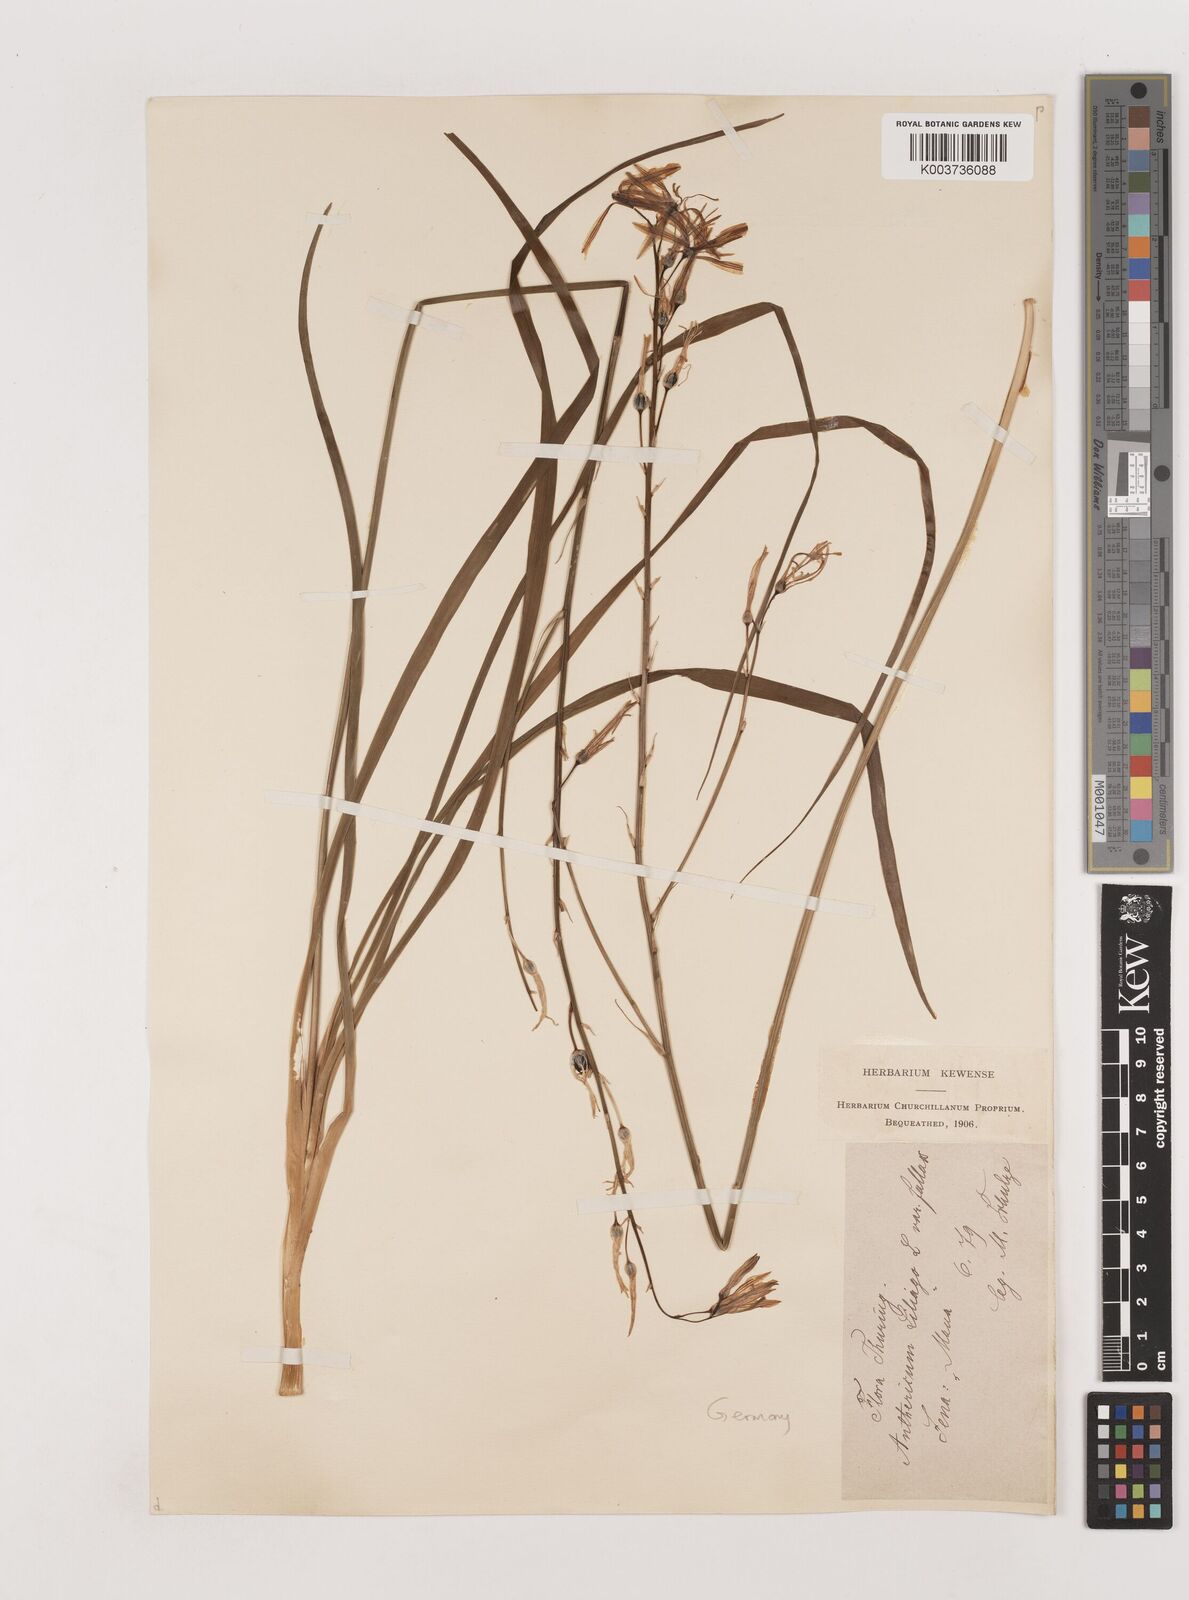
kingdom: Plantae
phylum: Tracheophyta
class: Liliopsida
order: Asparagales
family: Asparagaceae
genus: Anthericum
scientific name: Anthericum liliago
